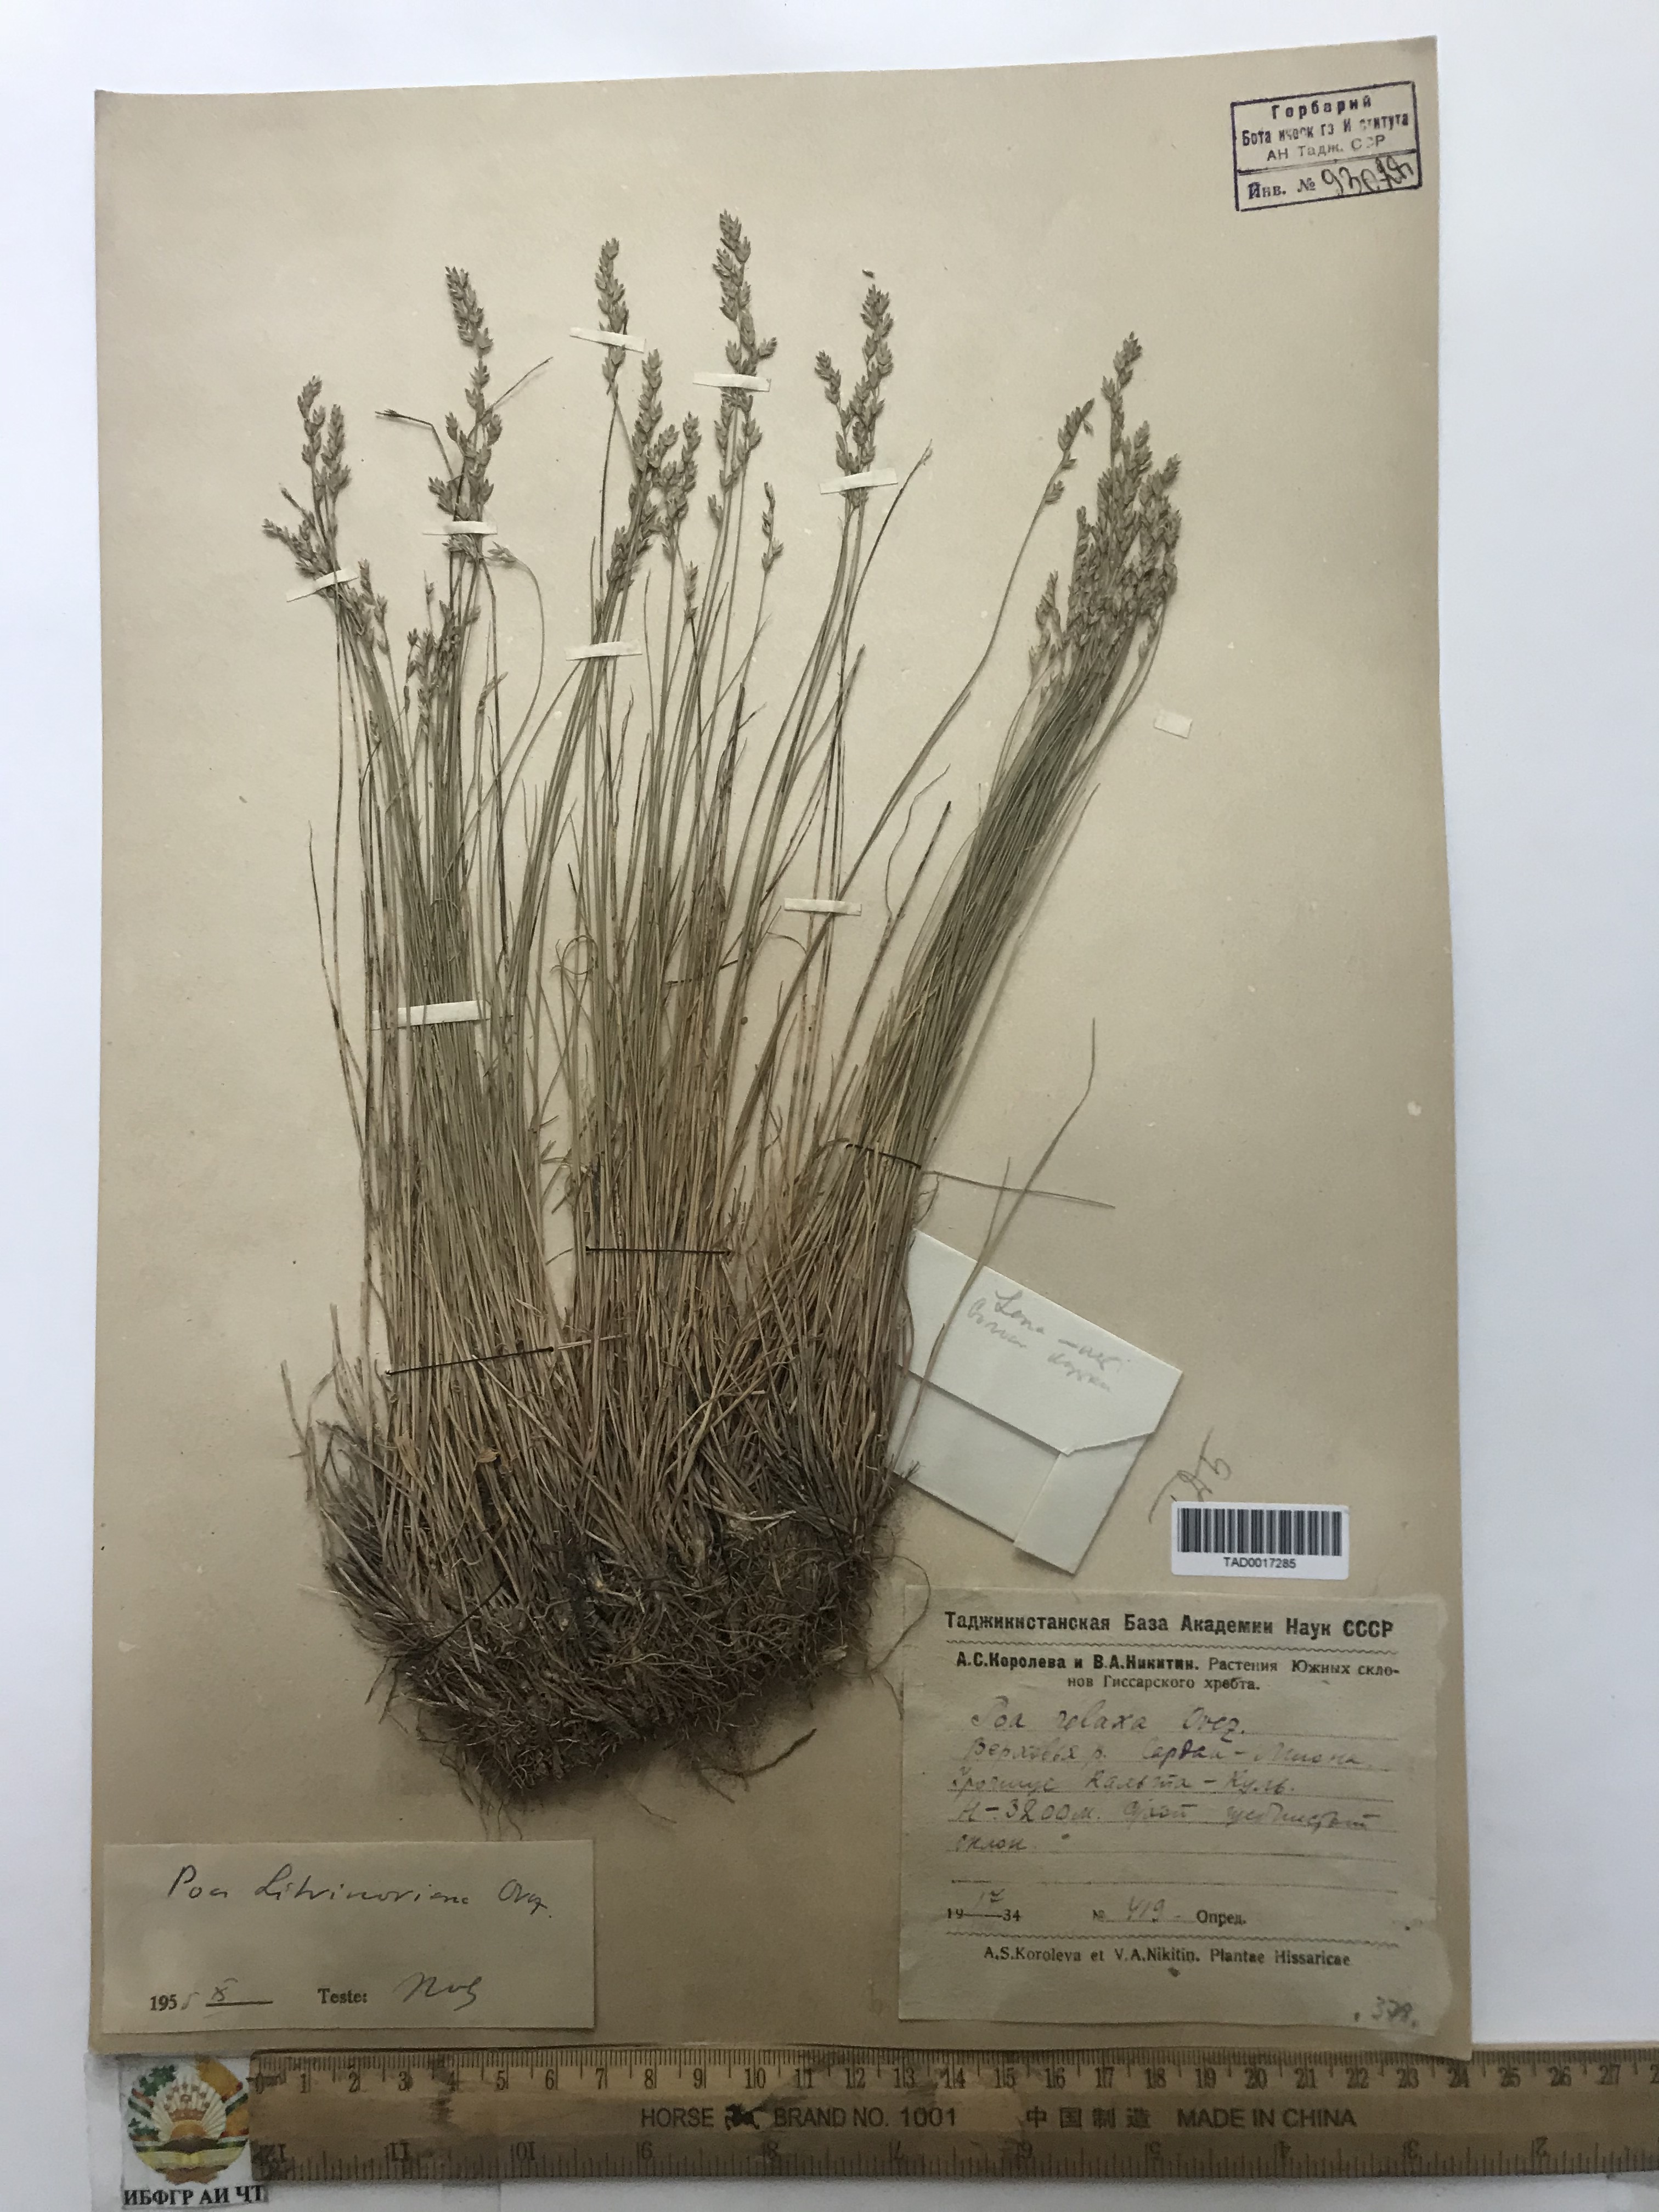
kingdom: Plantae
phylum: Tracheophyta
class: Liliopsida
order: Poales
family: Poaceae
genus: Poa
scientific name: Poa glauca
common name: Glaucous bluegrass
